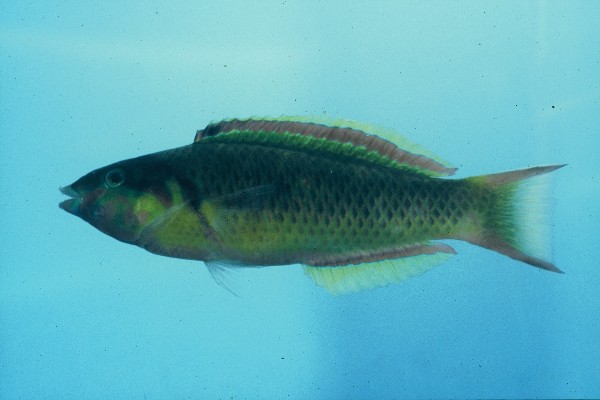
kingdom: Animalia
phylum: Chordata
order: Perciformes
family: Labridae
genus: Thalassoma
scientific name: Thalassoma genivittatum
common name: Red-cheek wrasse
